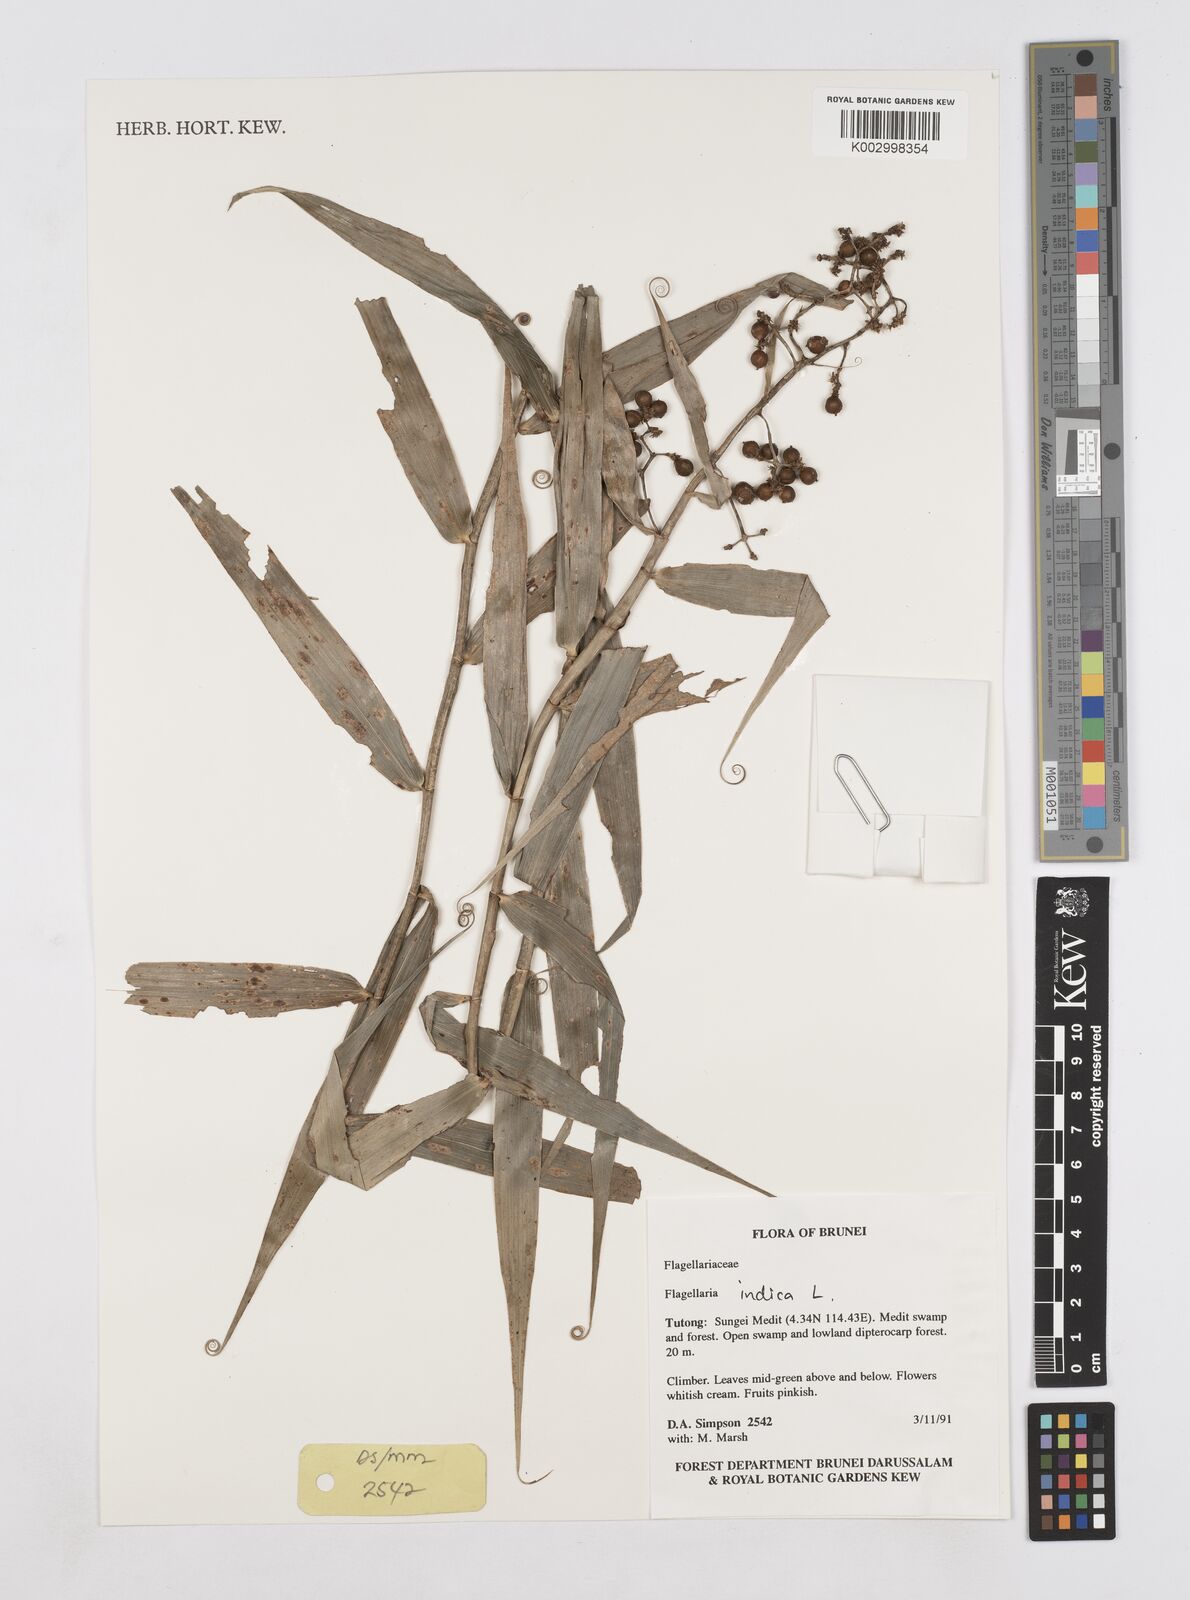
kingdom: Plantae
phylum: Tracheophyta
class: Liliopsida
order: Poales
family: Flagellariaceae
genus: Flagellaria
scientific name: Flagellaria indica
